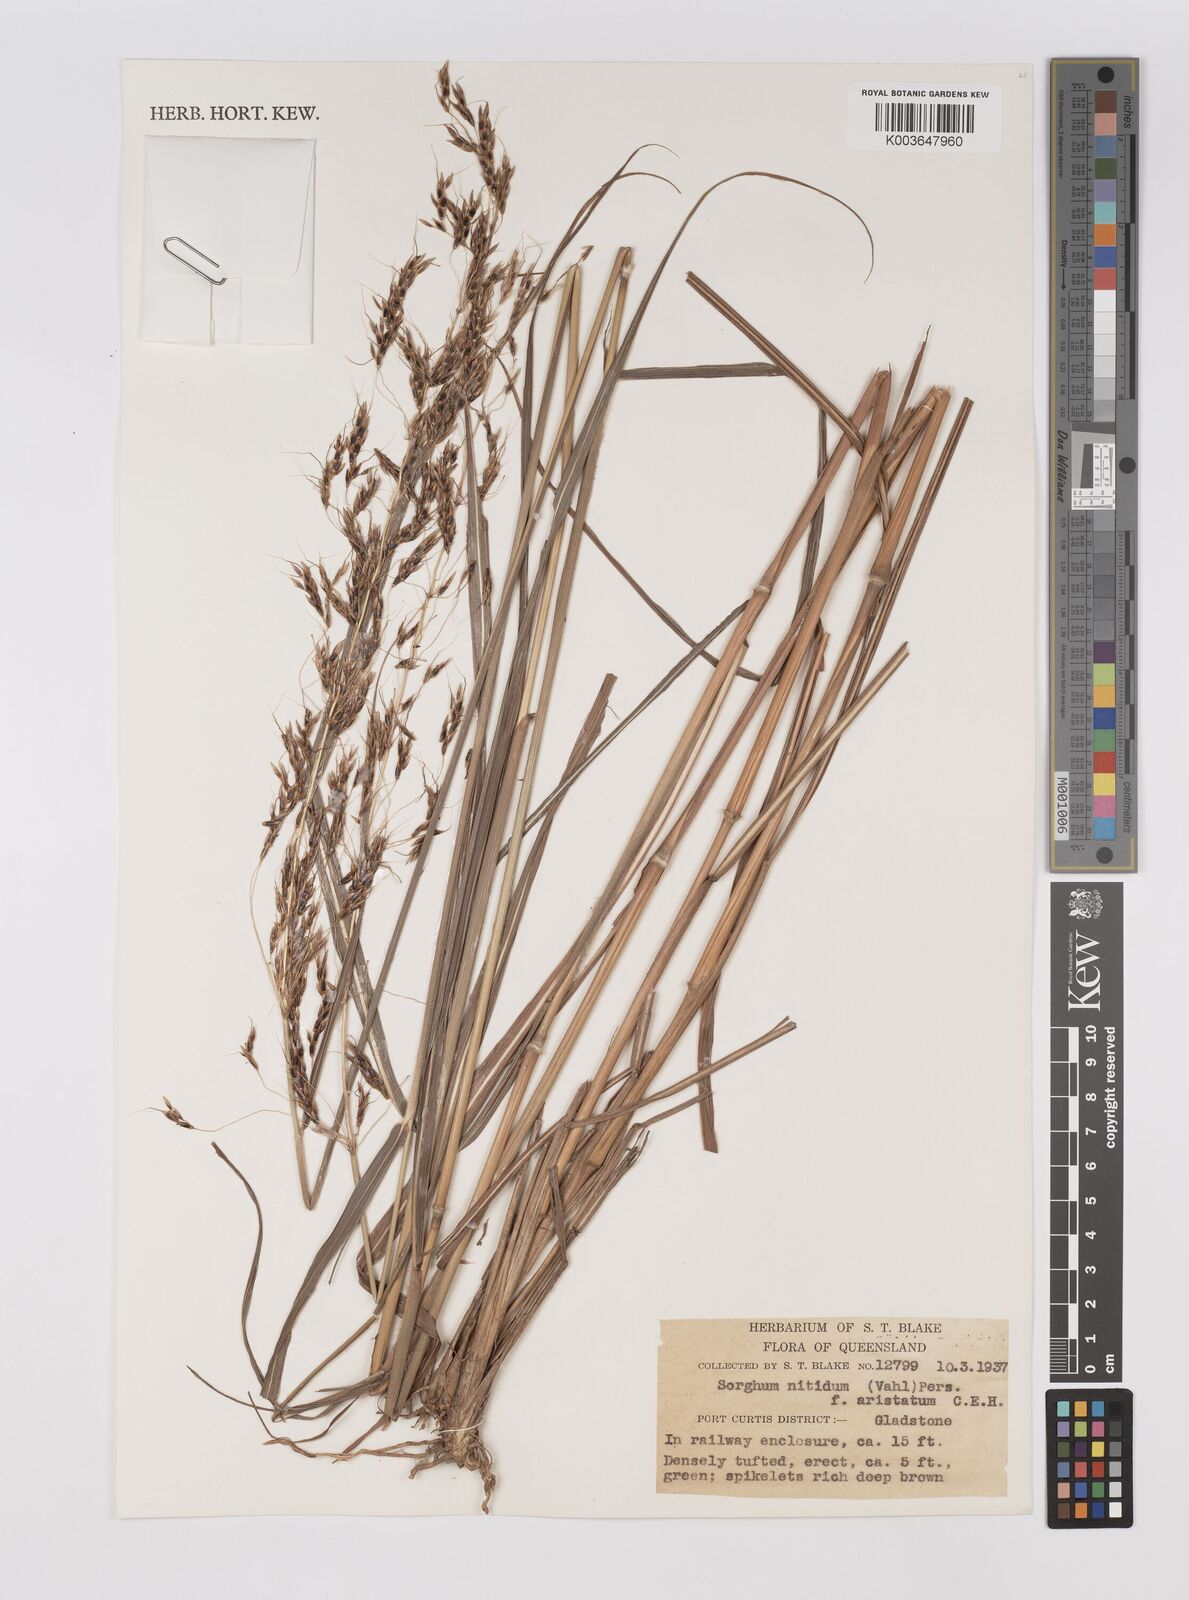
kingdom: Plantae
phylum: Tracheophyta
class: Liliopsida
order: Poales
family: Poaceae
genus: Sorghum
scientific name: Sorghum nitidum
